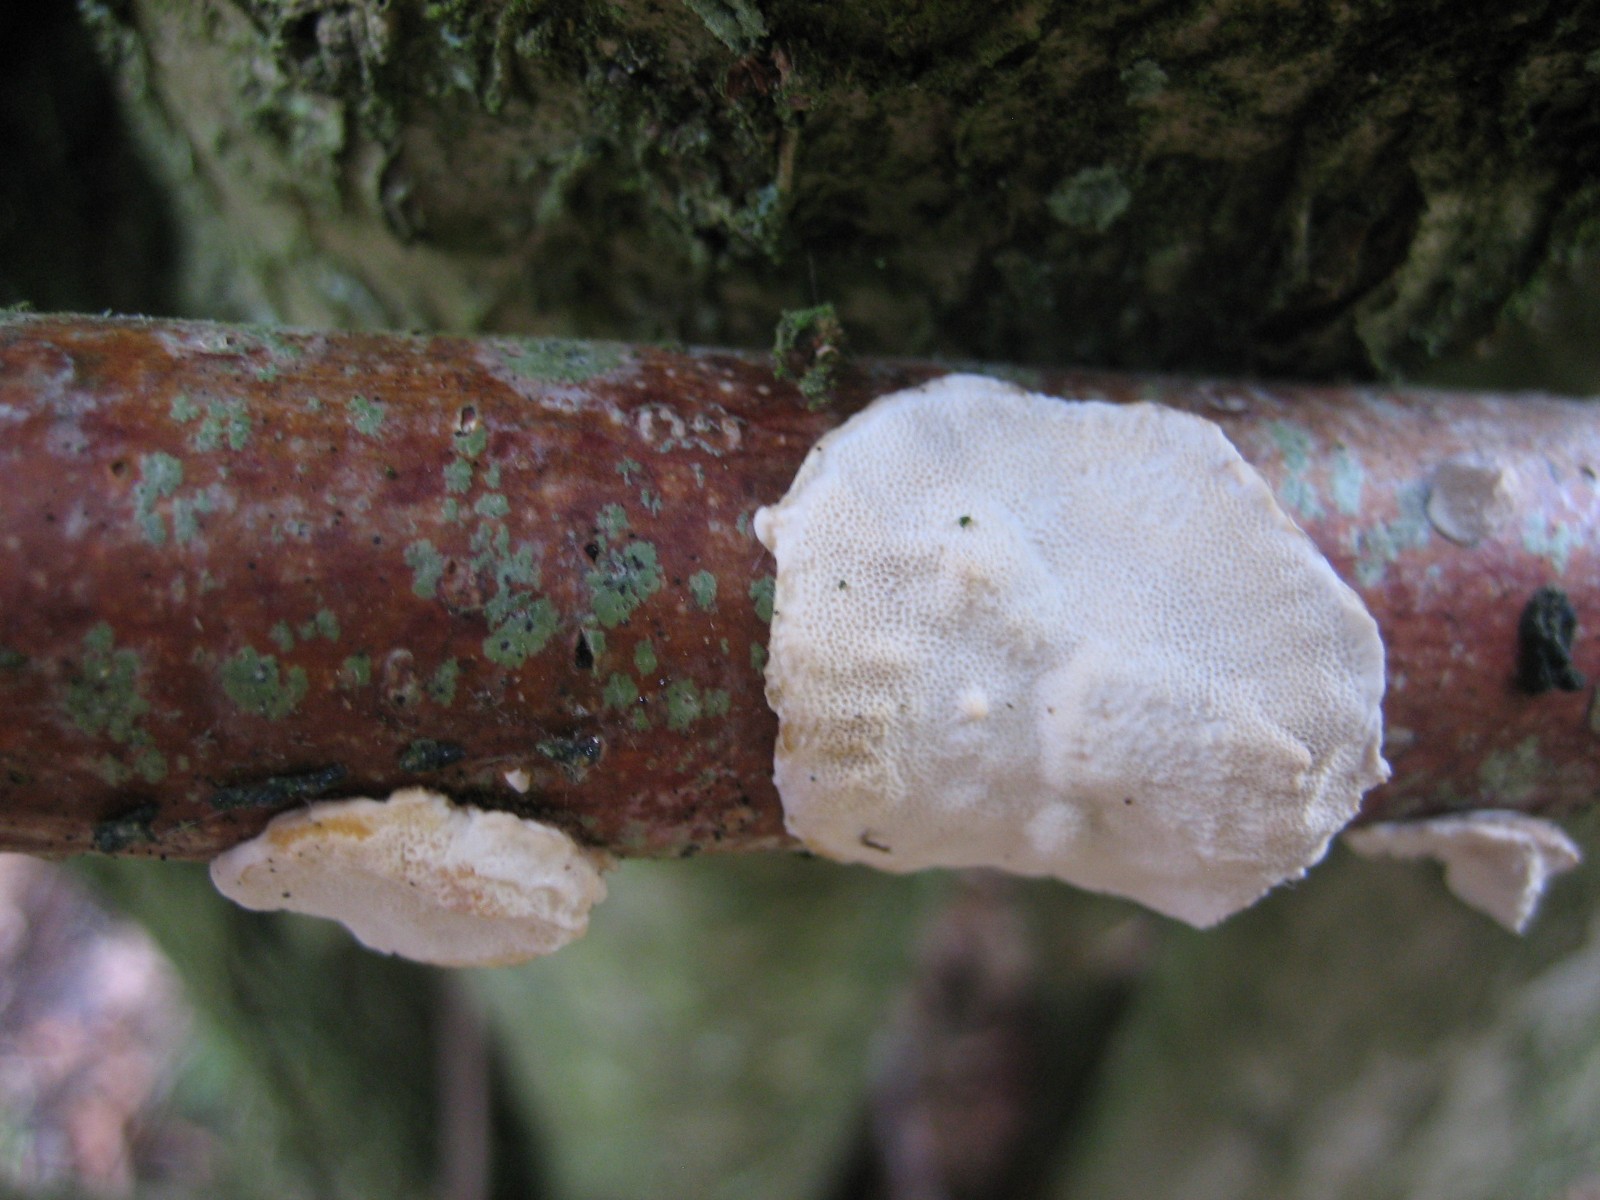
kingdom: Fungi
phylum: Basidiomycota
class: Agaricomycetes
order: Polyporales
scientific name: Polyporales
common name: poresvampordenen
